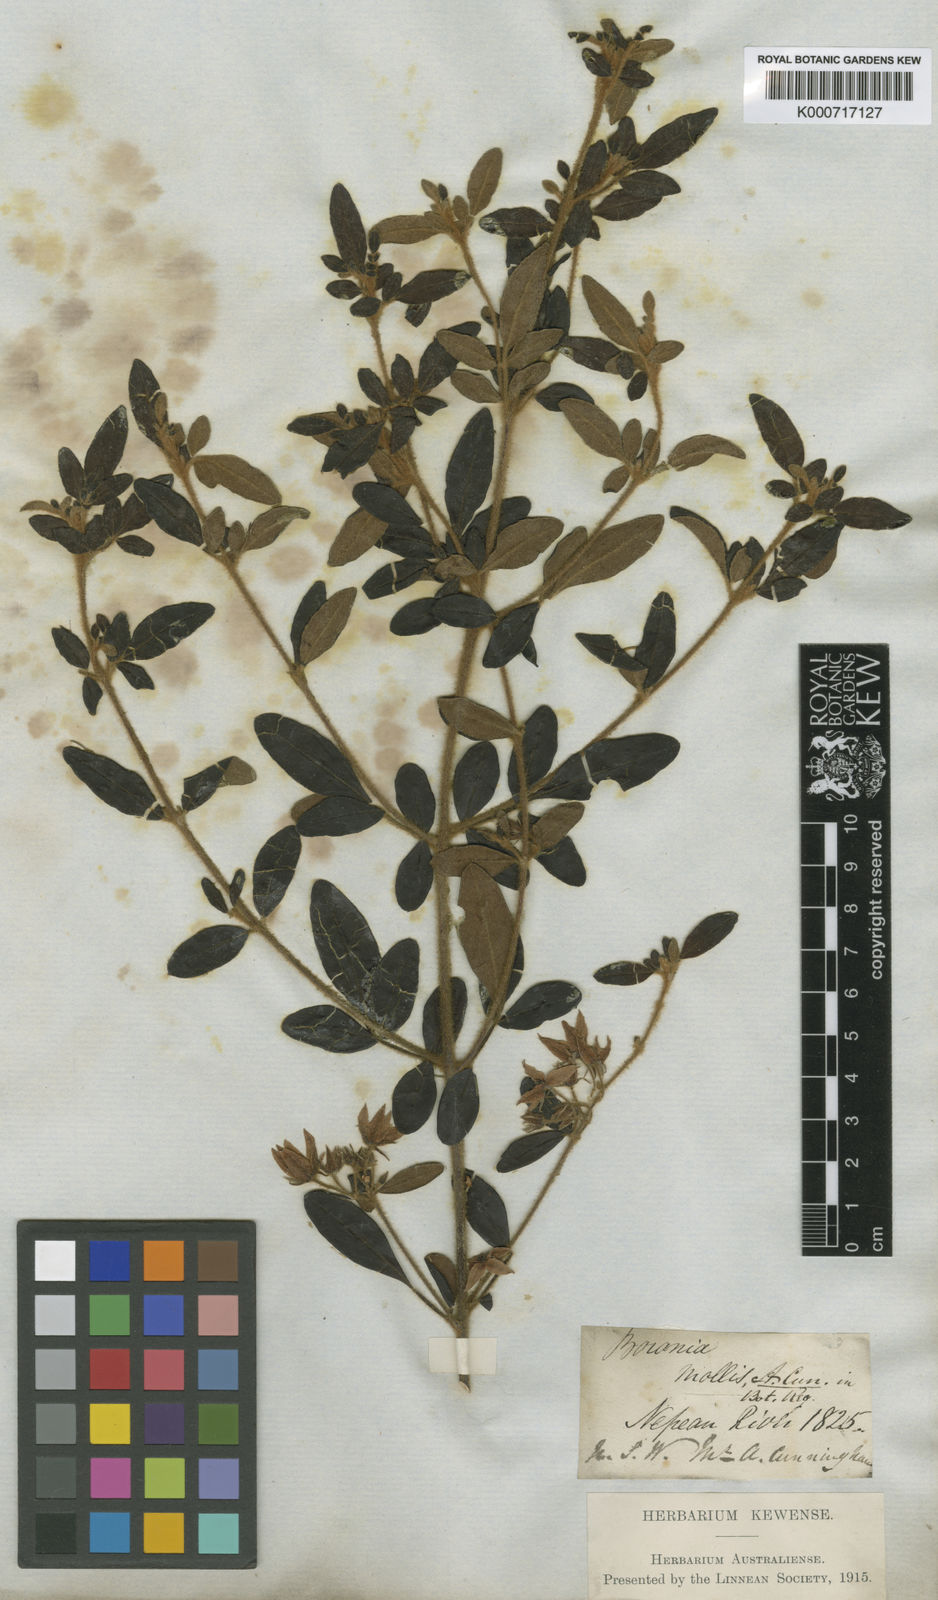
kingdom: Plantae
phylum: Tracheophyta
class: Magnoliopsida
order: Sapindales
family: Rutaceae
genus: Boronia
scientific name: Boronia mollis
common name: Soft boronia
